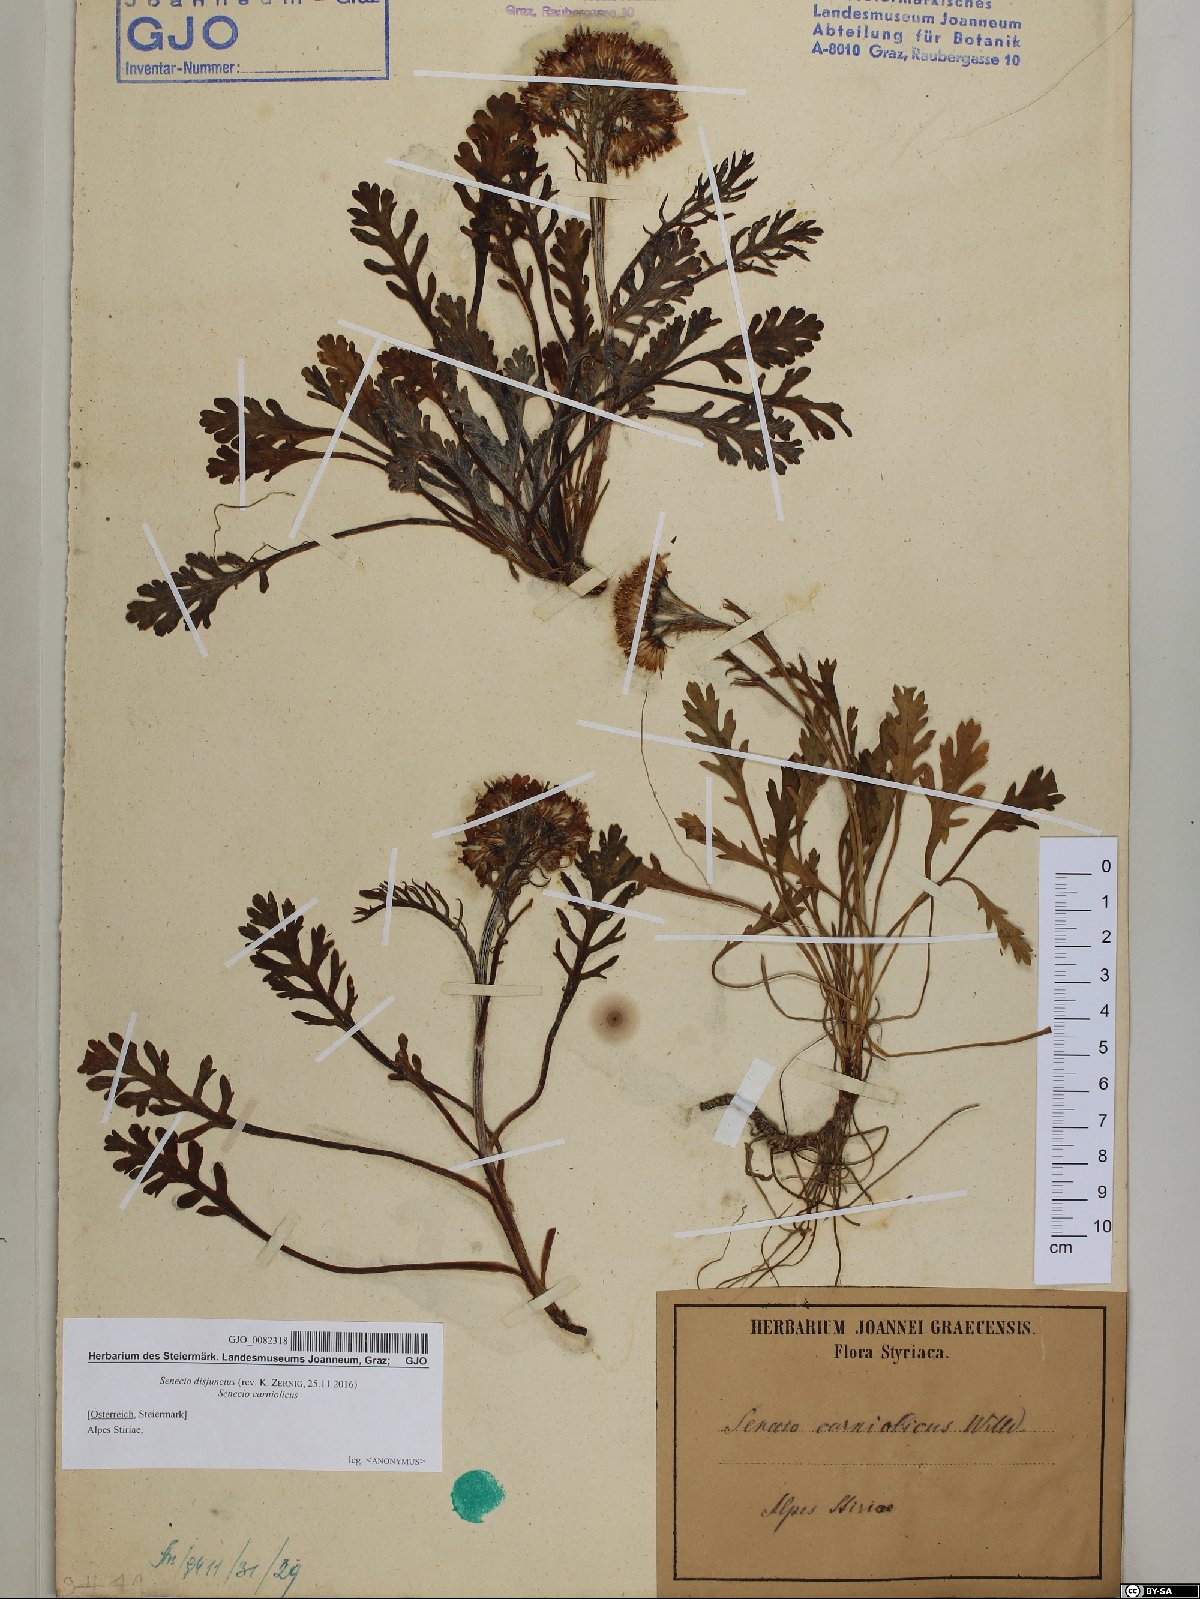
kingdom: Plantae
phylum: Tracheophyta
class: Magnoliopsida
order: Asterales
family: Asteraceae
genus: Jacobaea
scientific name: Jacobaea disjuncta
